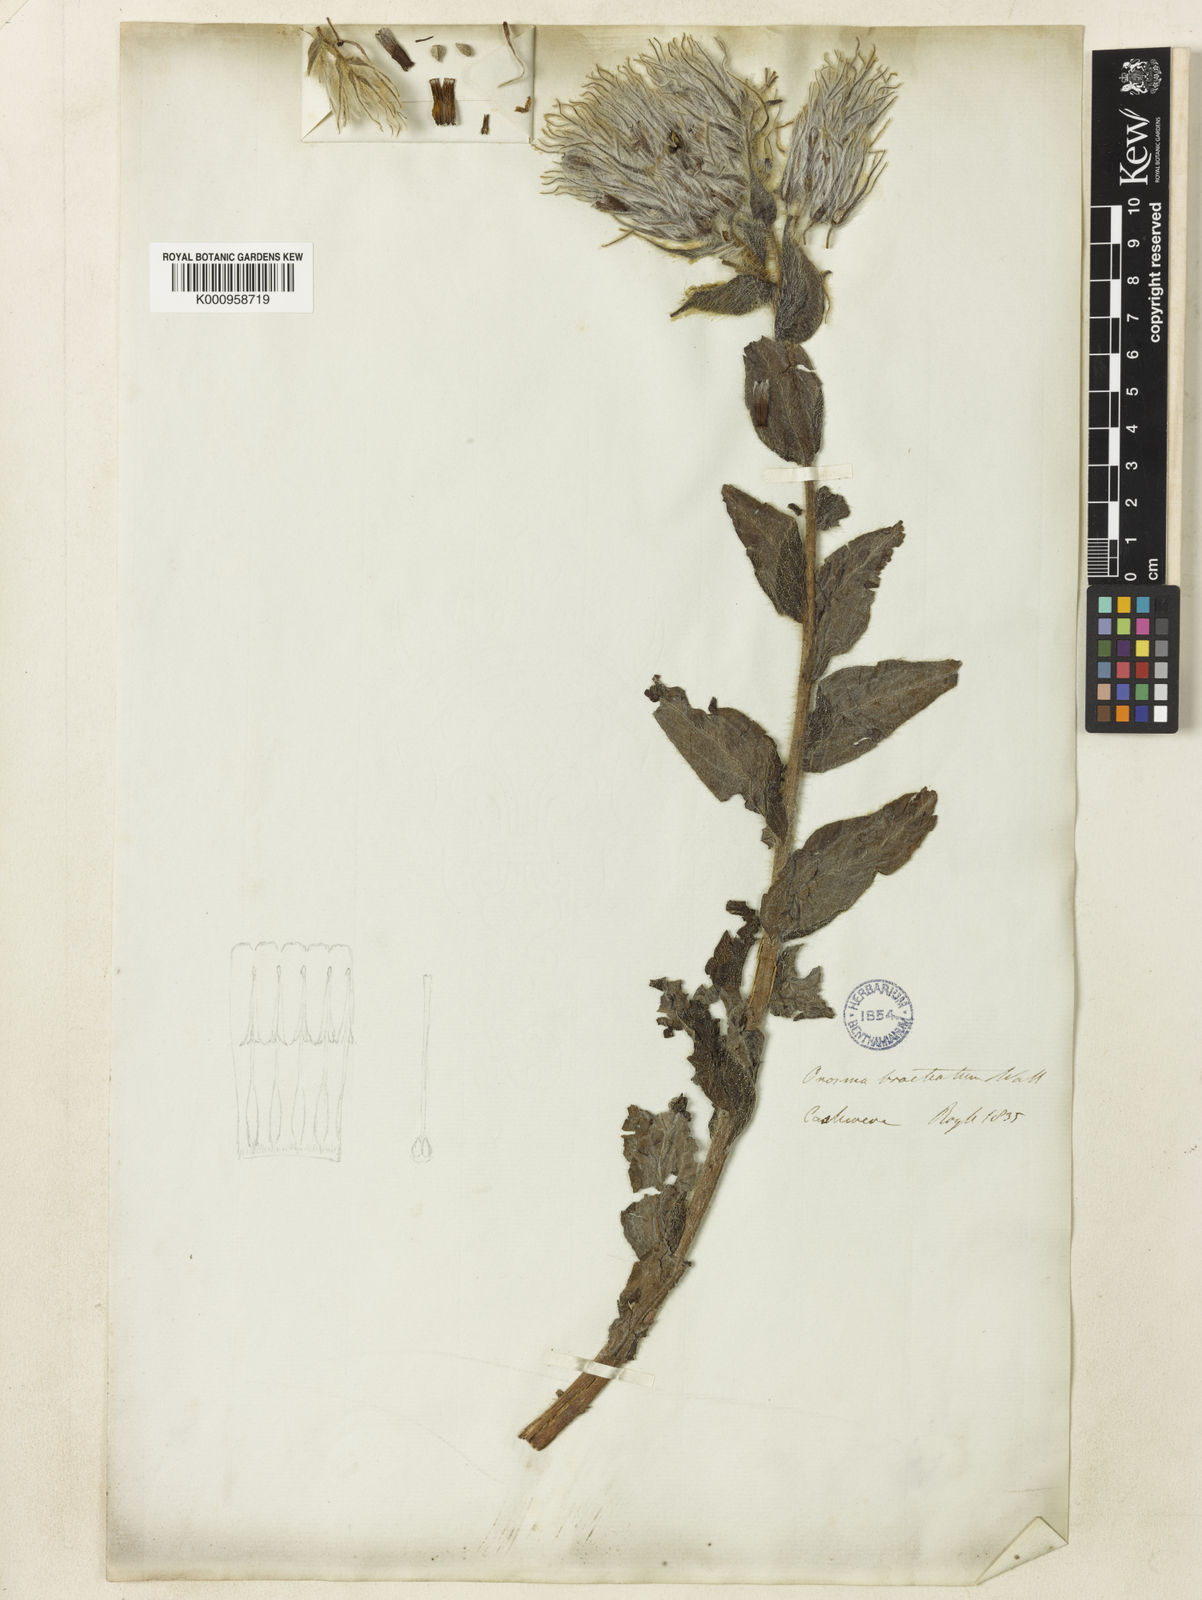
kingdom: Plantae
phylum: Tracheophyta
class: Magnoliopsida
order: Boraginales
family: Boraginaceae
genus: Maharanga
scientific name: Maharanga bracteata
